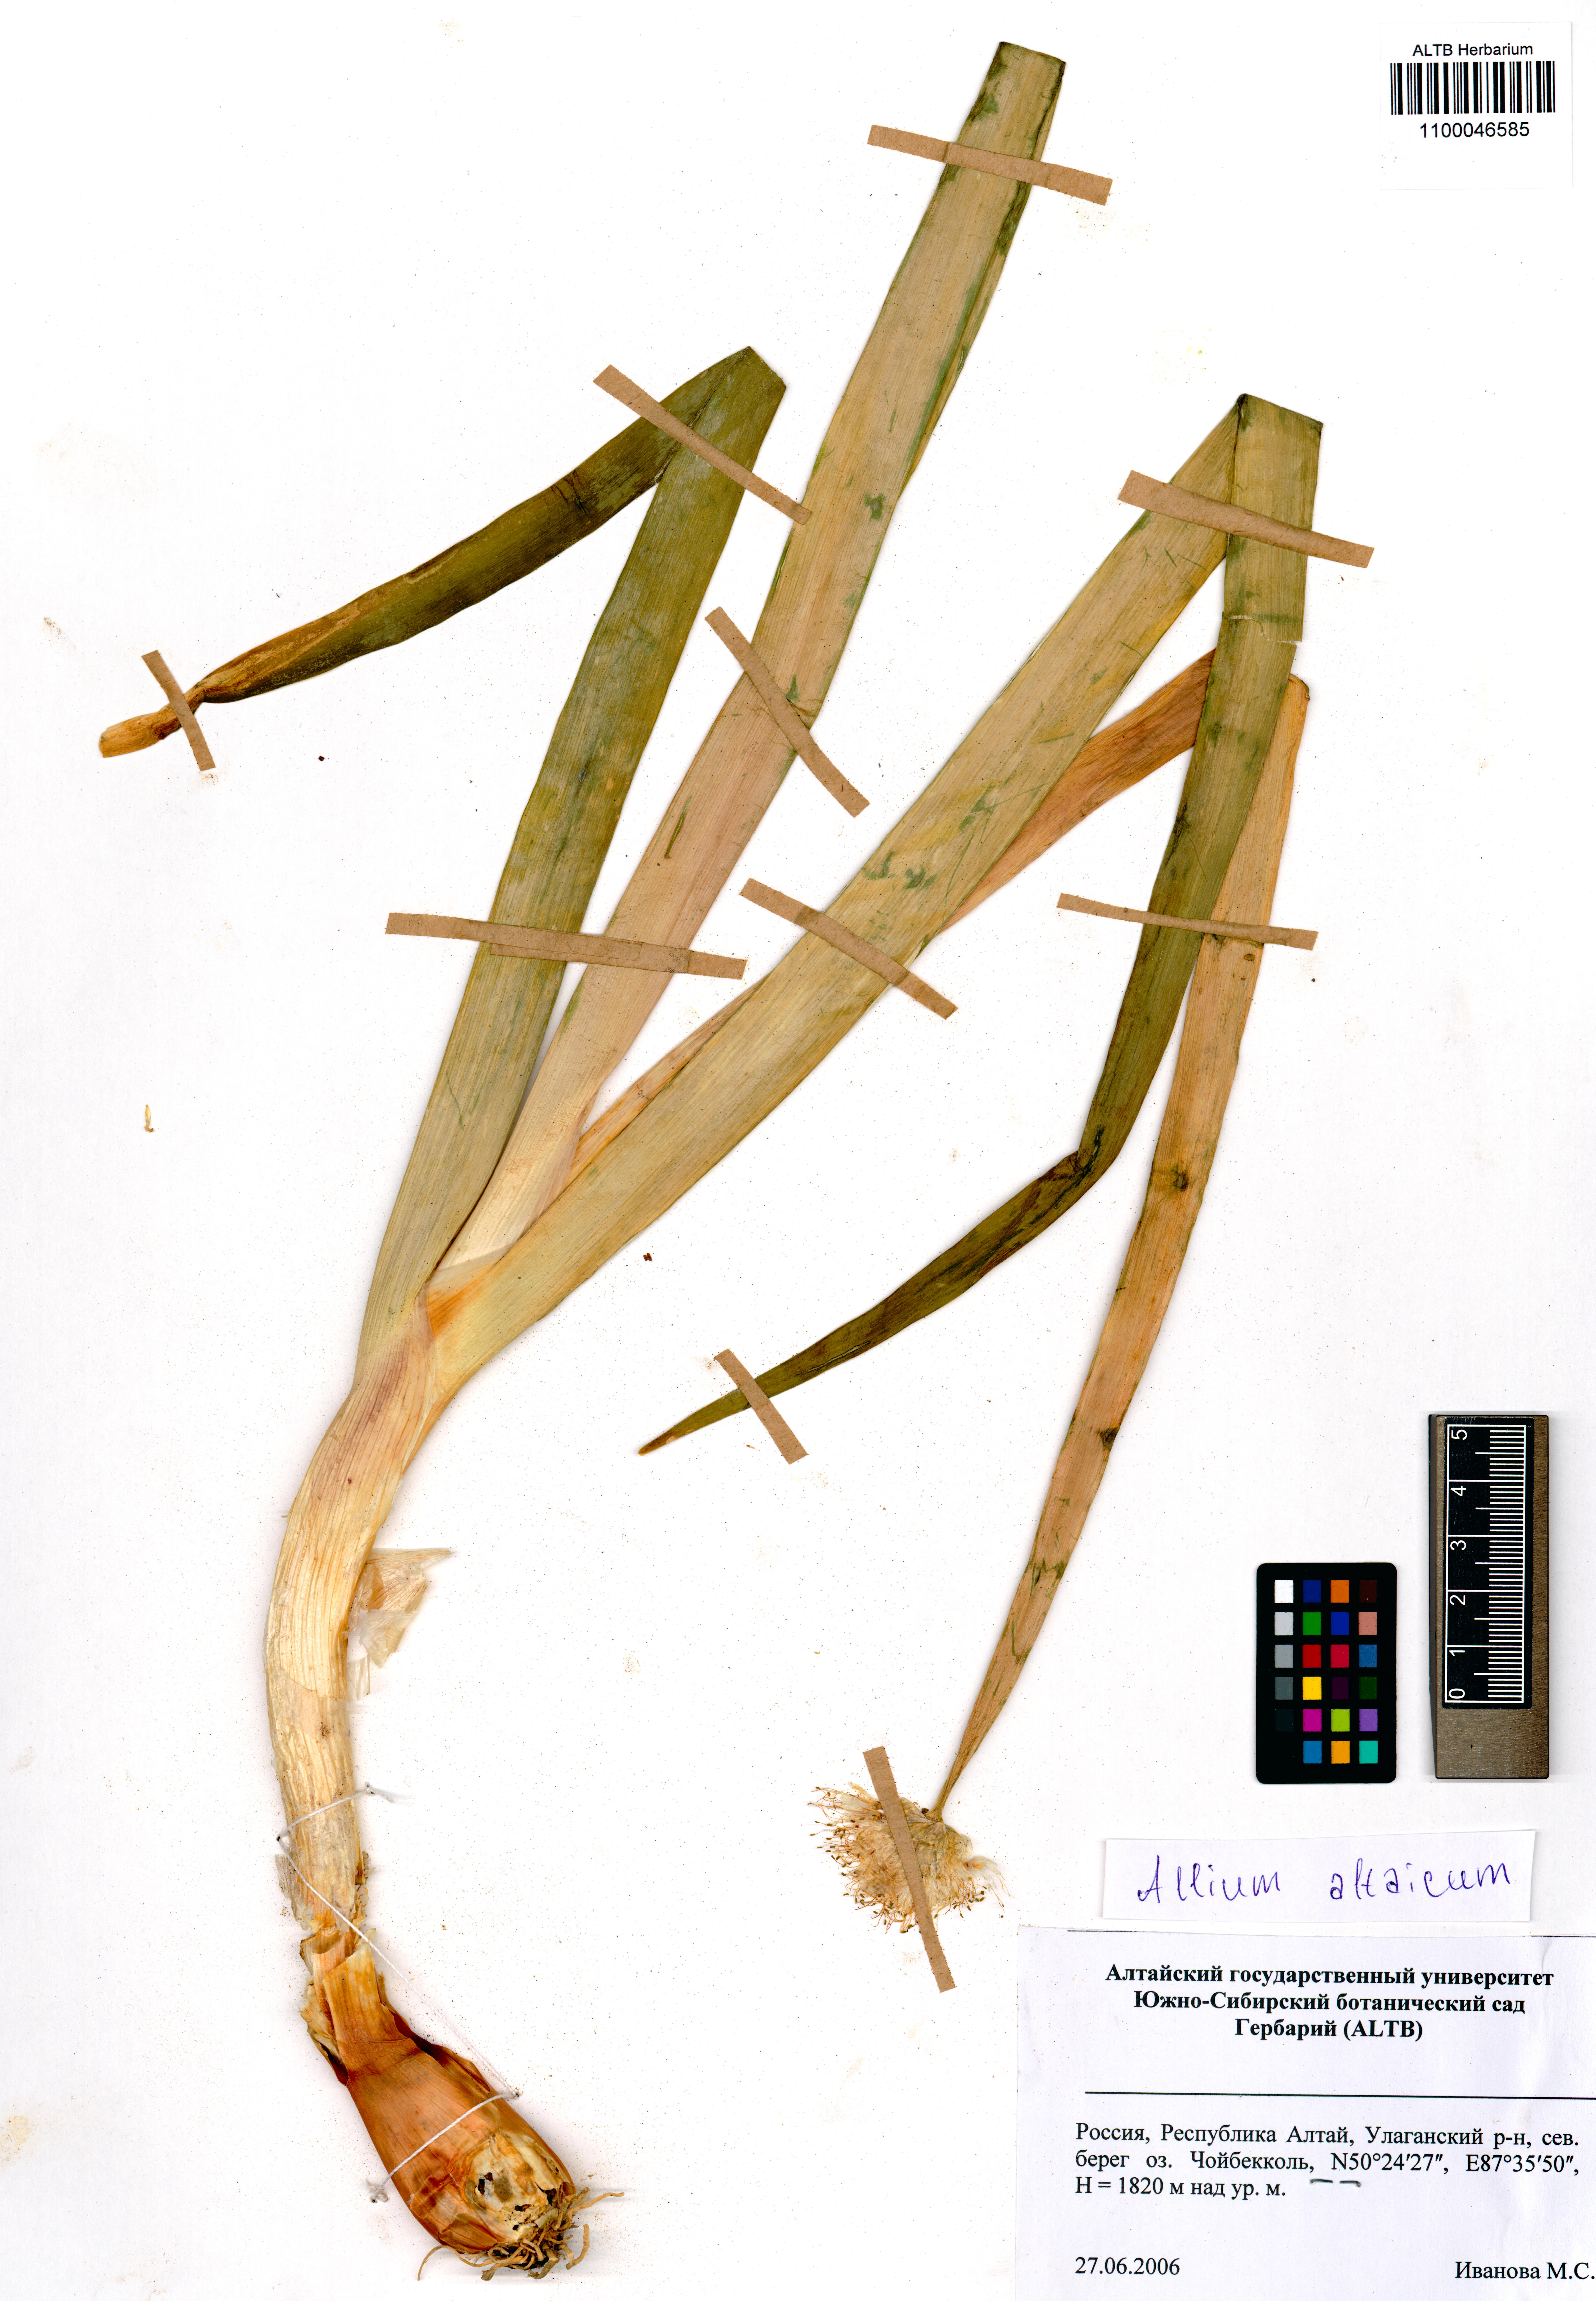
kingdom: Plantae
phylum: Tracheophyta
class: Liliopsida
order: Asparagales
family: Amaryllidaceae
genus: Allium
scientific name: Allium altaicum
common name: Altai onion
